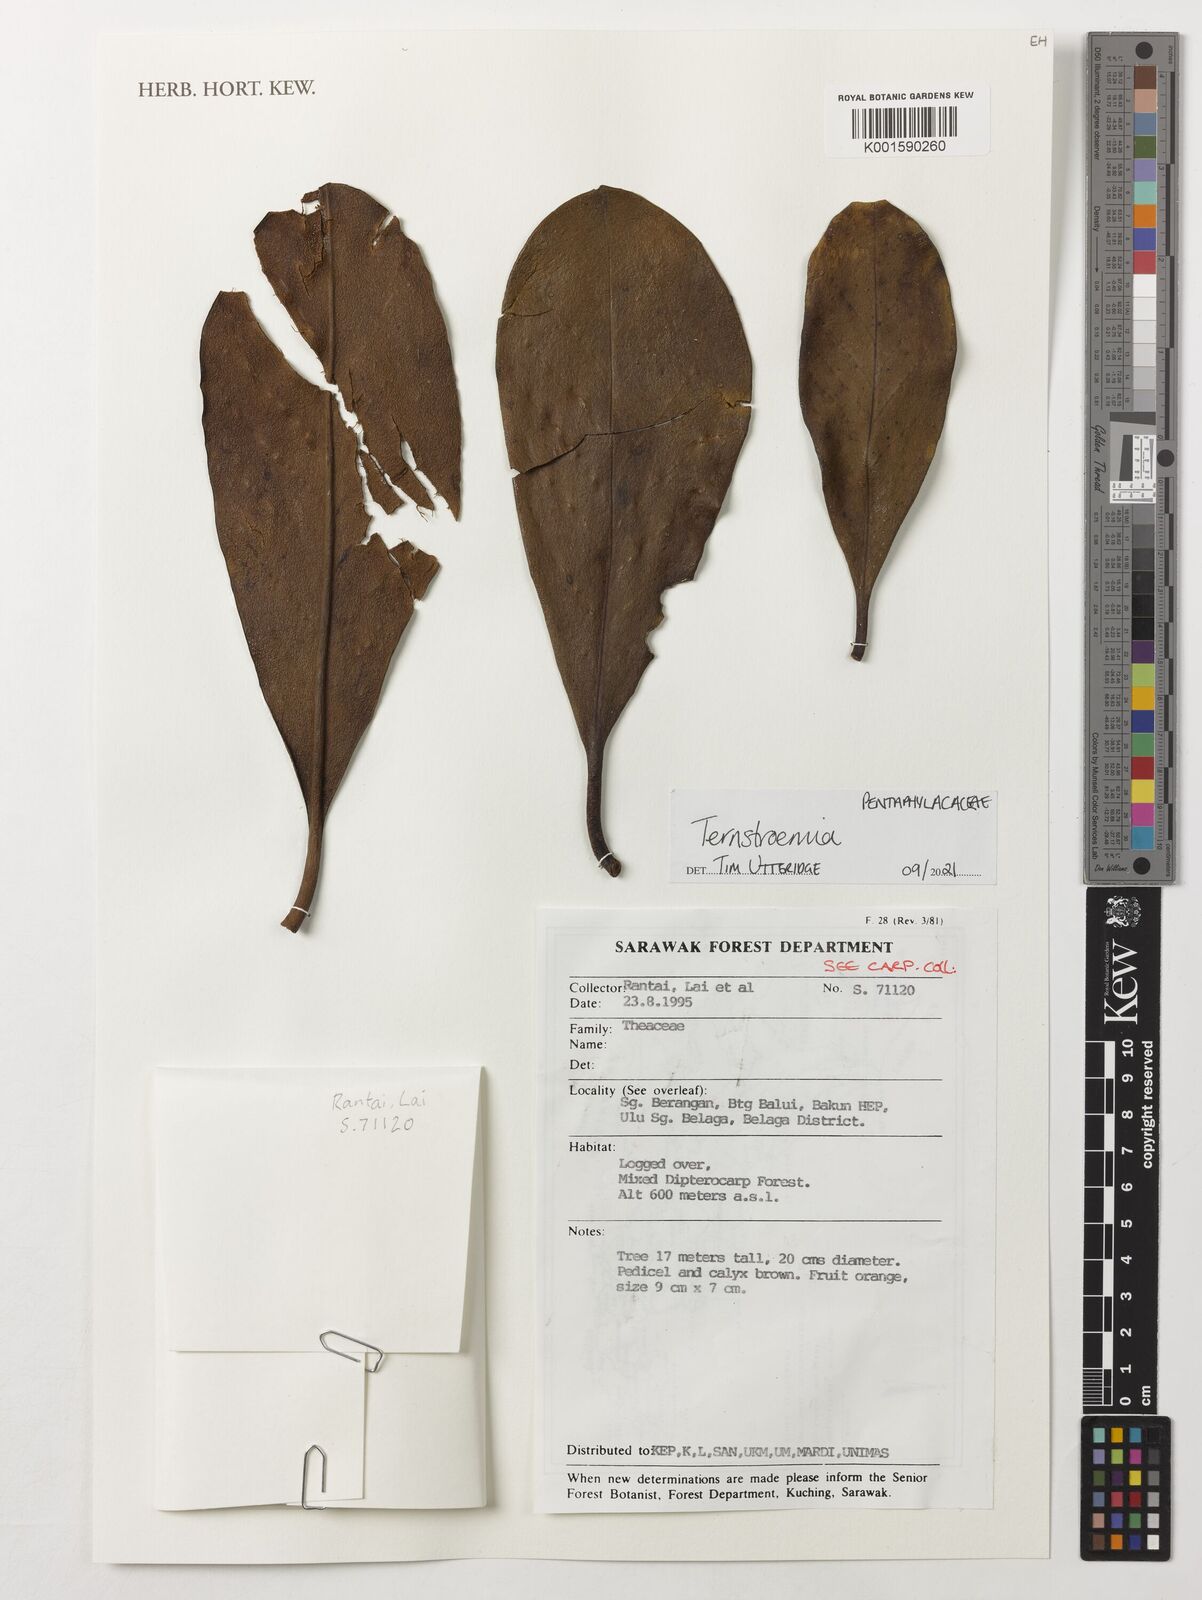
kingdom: Plantae
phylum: Tracheophyta
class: Magnoliopsida
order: Ericales
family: Pentaphylacaceae
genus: Ternstroemia
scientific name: Ternstroemia
